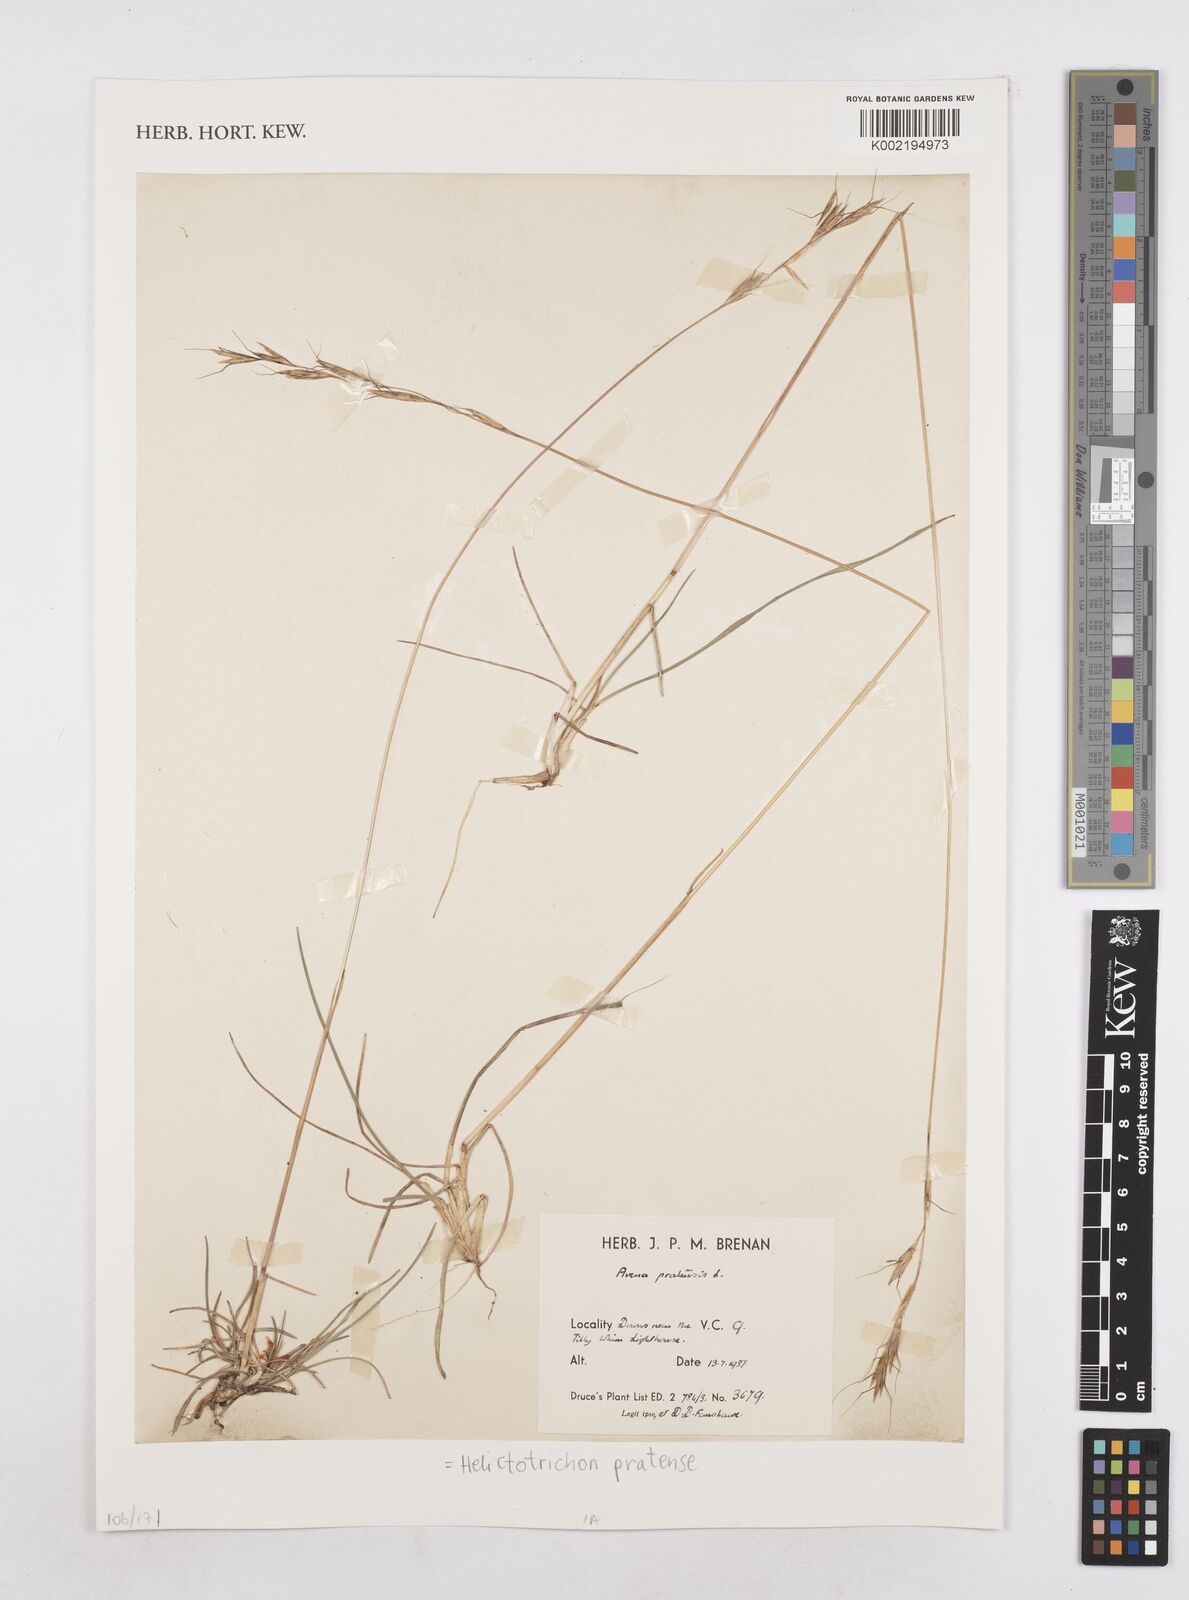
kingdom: Plantae
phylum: Tracheophyta
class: Liliopsida
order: Poales
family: Poaceae
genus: Helictochloa
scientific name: Helictochloa pratensis
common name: Meadow oat grass
